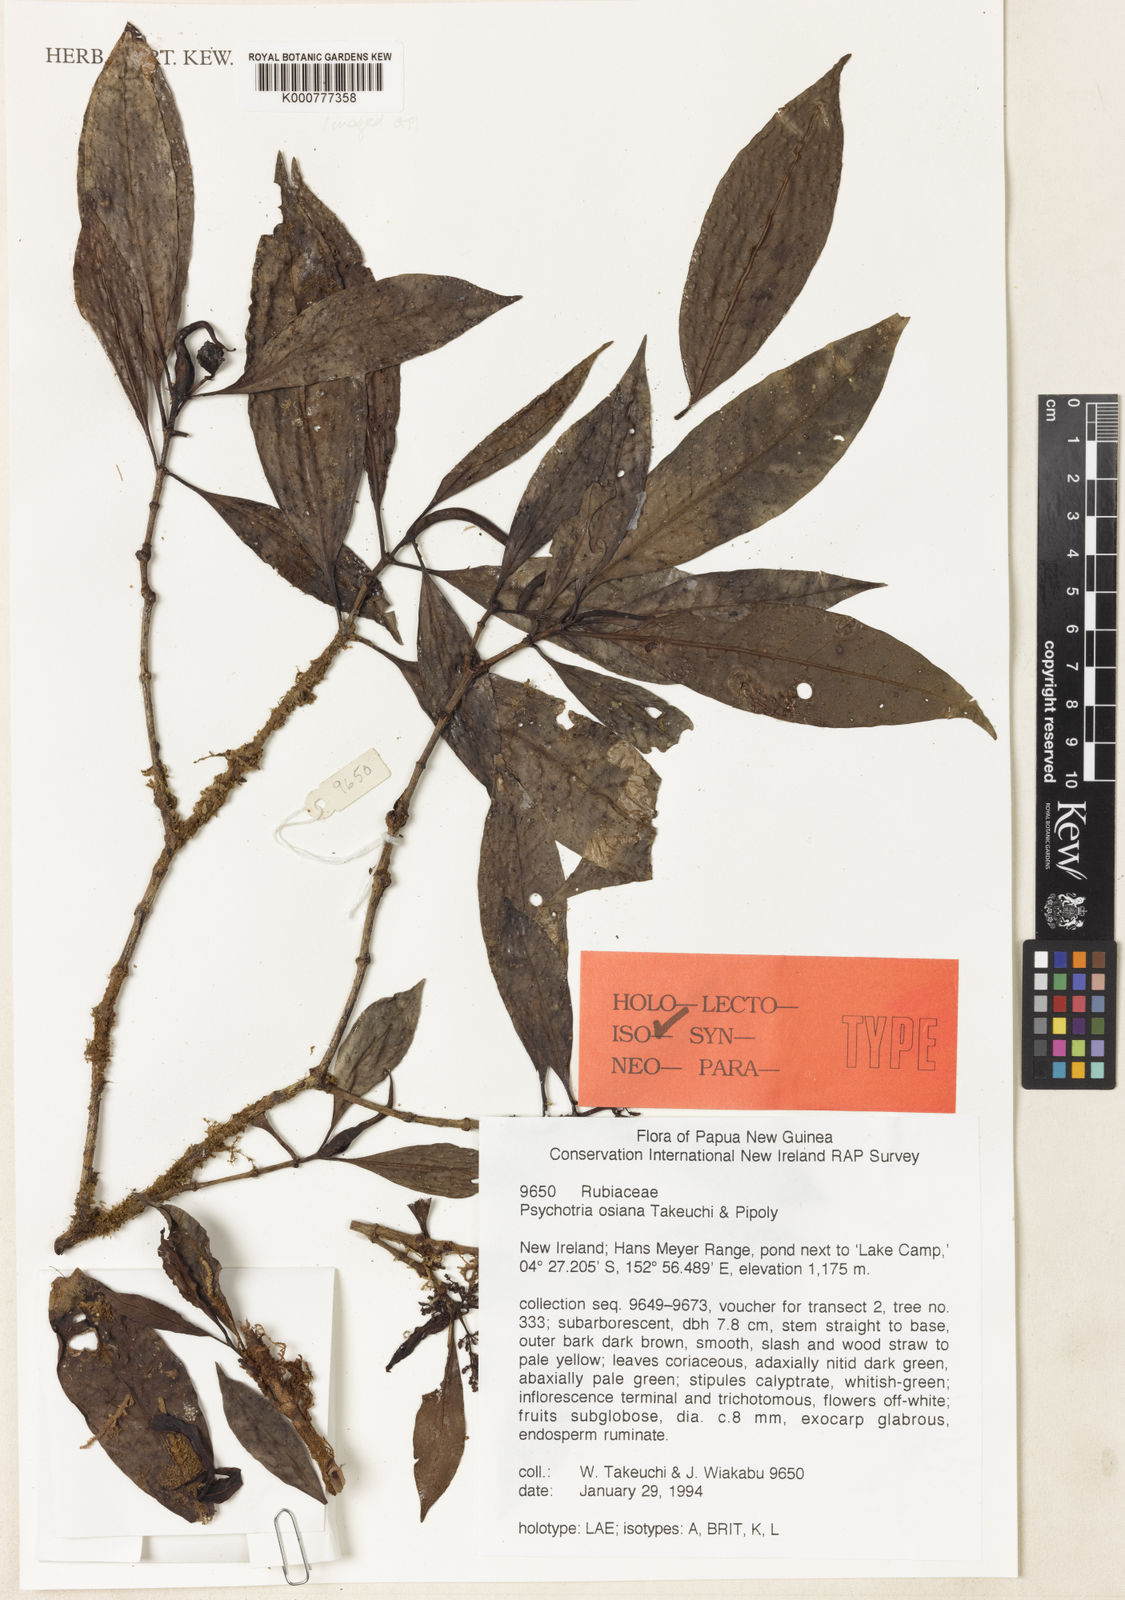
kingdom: Plantae
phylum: Tracheophyta
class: Magnoliopsida
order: Gentianales
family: Rubiaceae
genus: Psychotria
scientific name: Psychotria osiana
